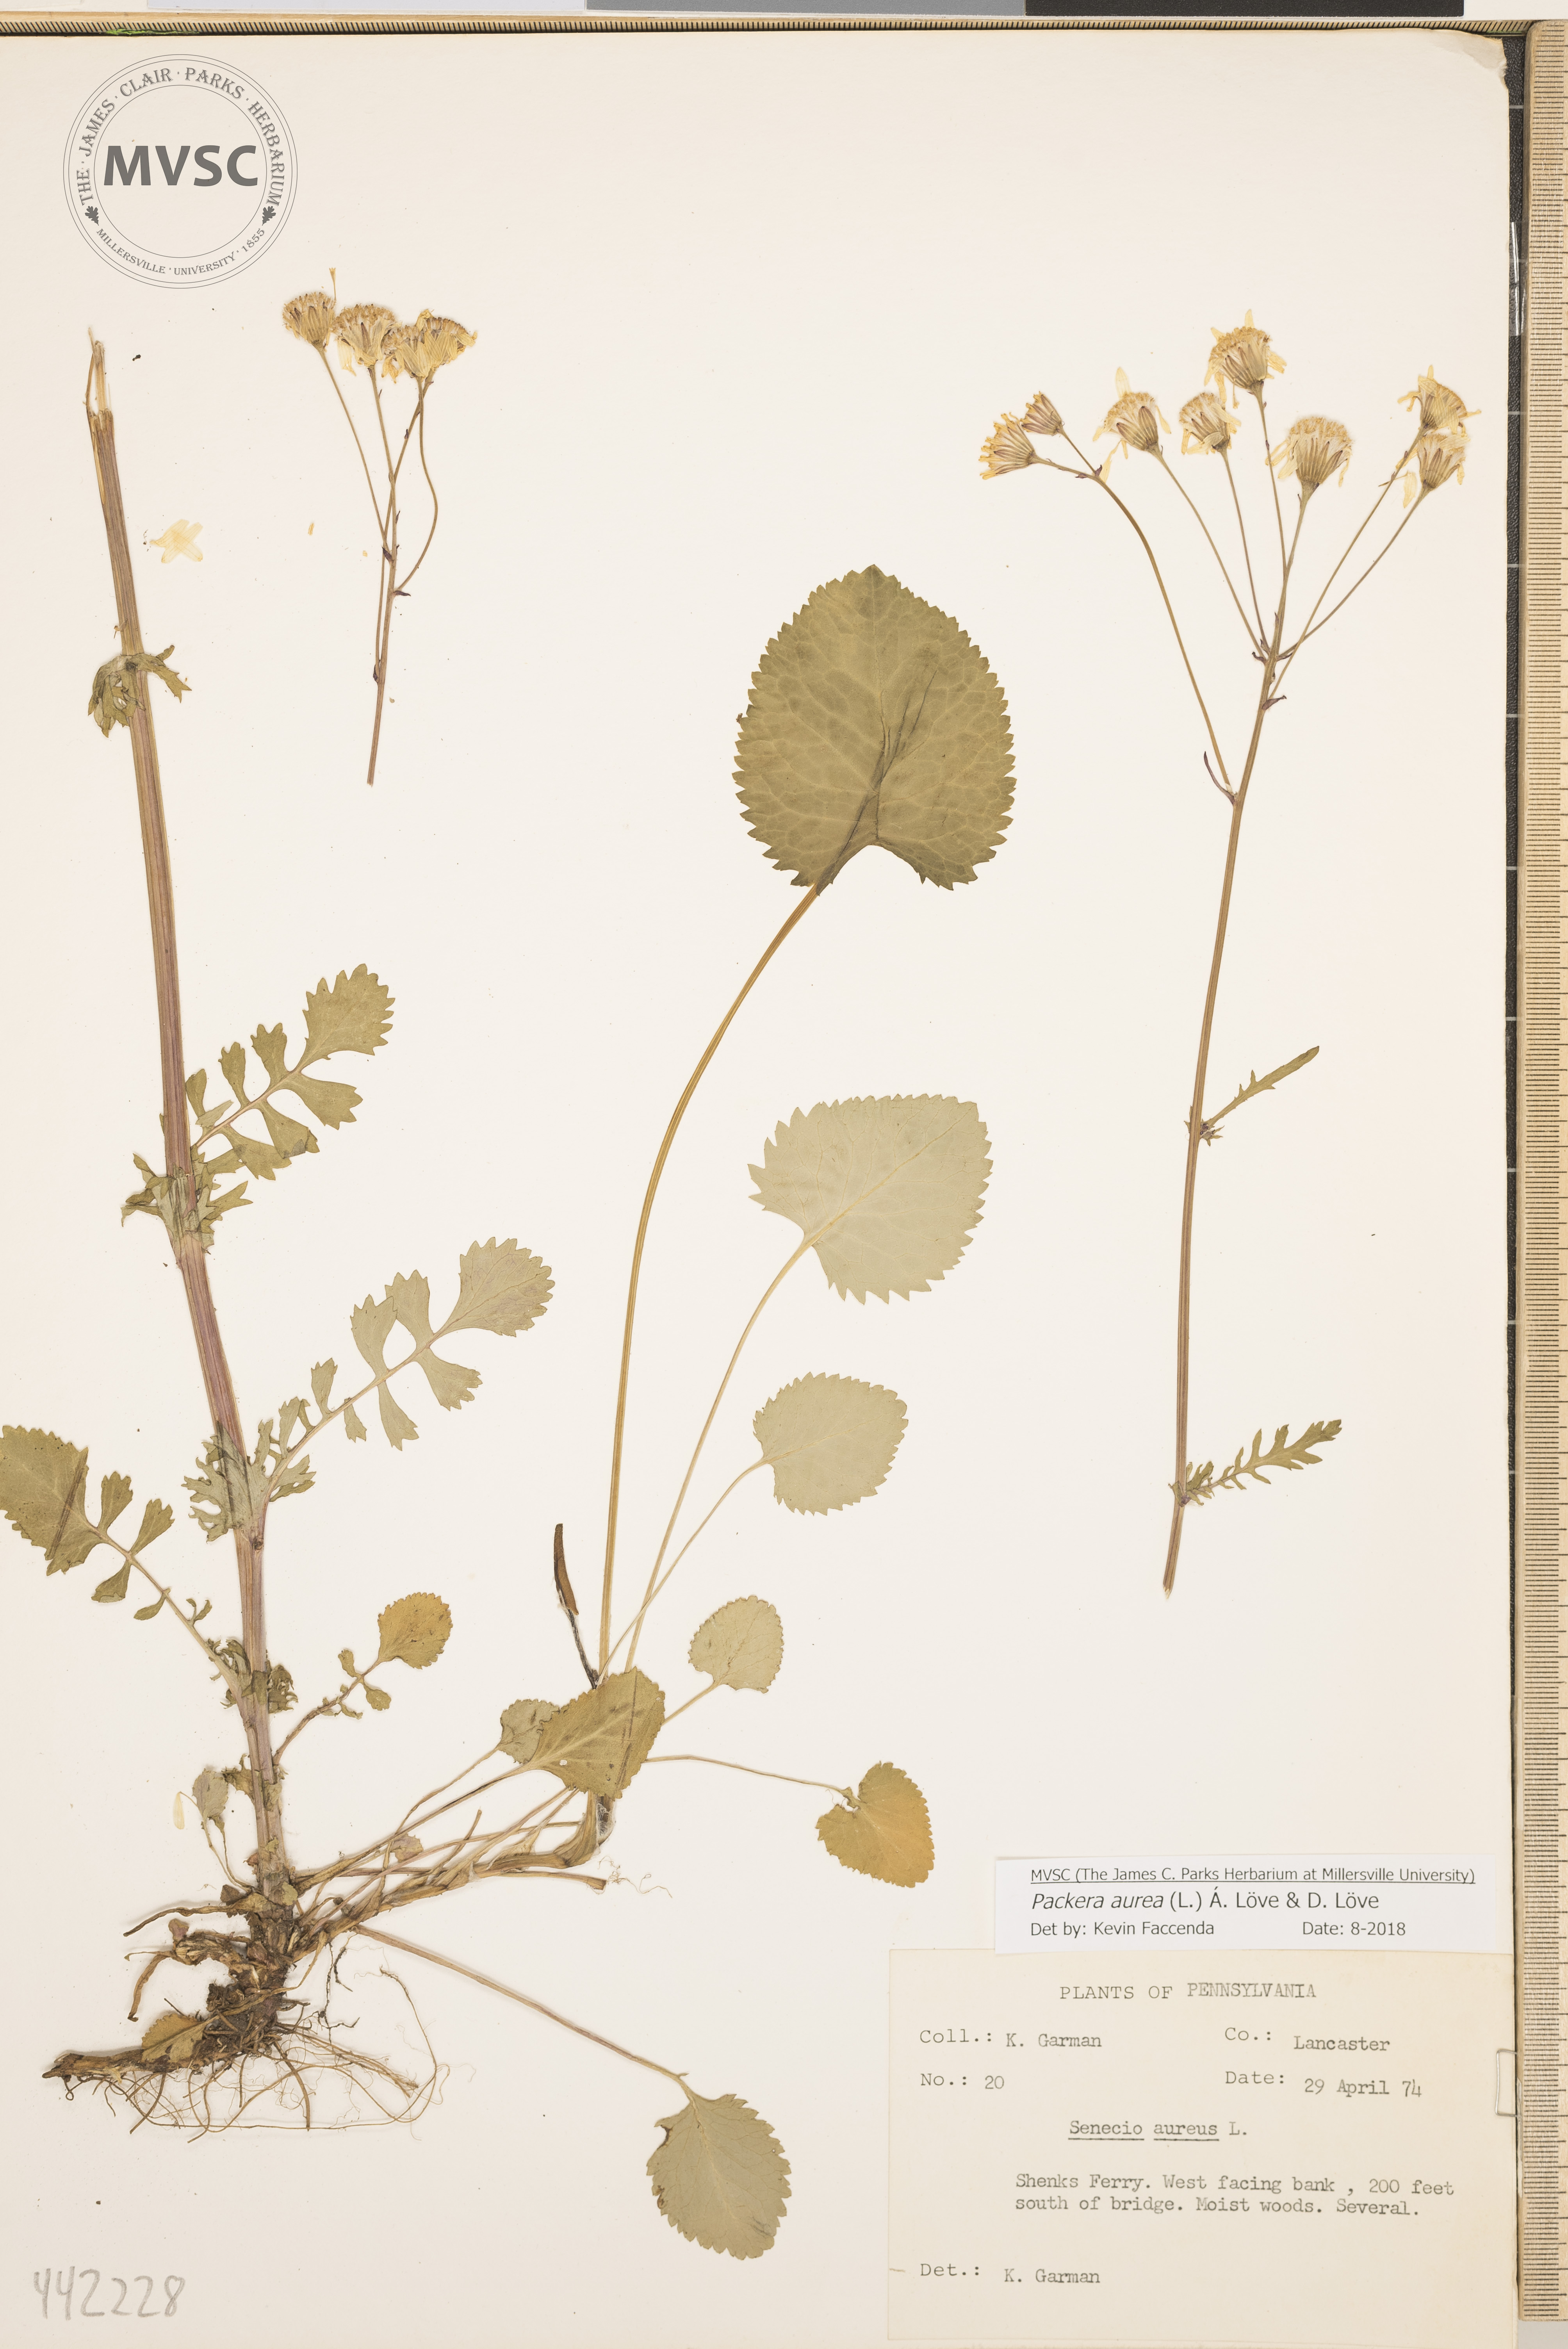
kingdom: Plantae
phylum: Tracheophyta
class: Magnoliopsida
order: Asterales
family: Asteraceae
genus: Packera
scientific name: Packera aurea
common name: Golden groundsel
